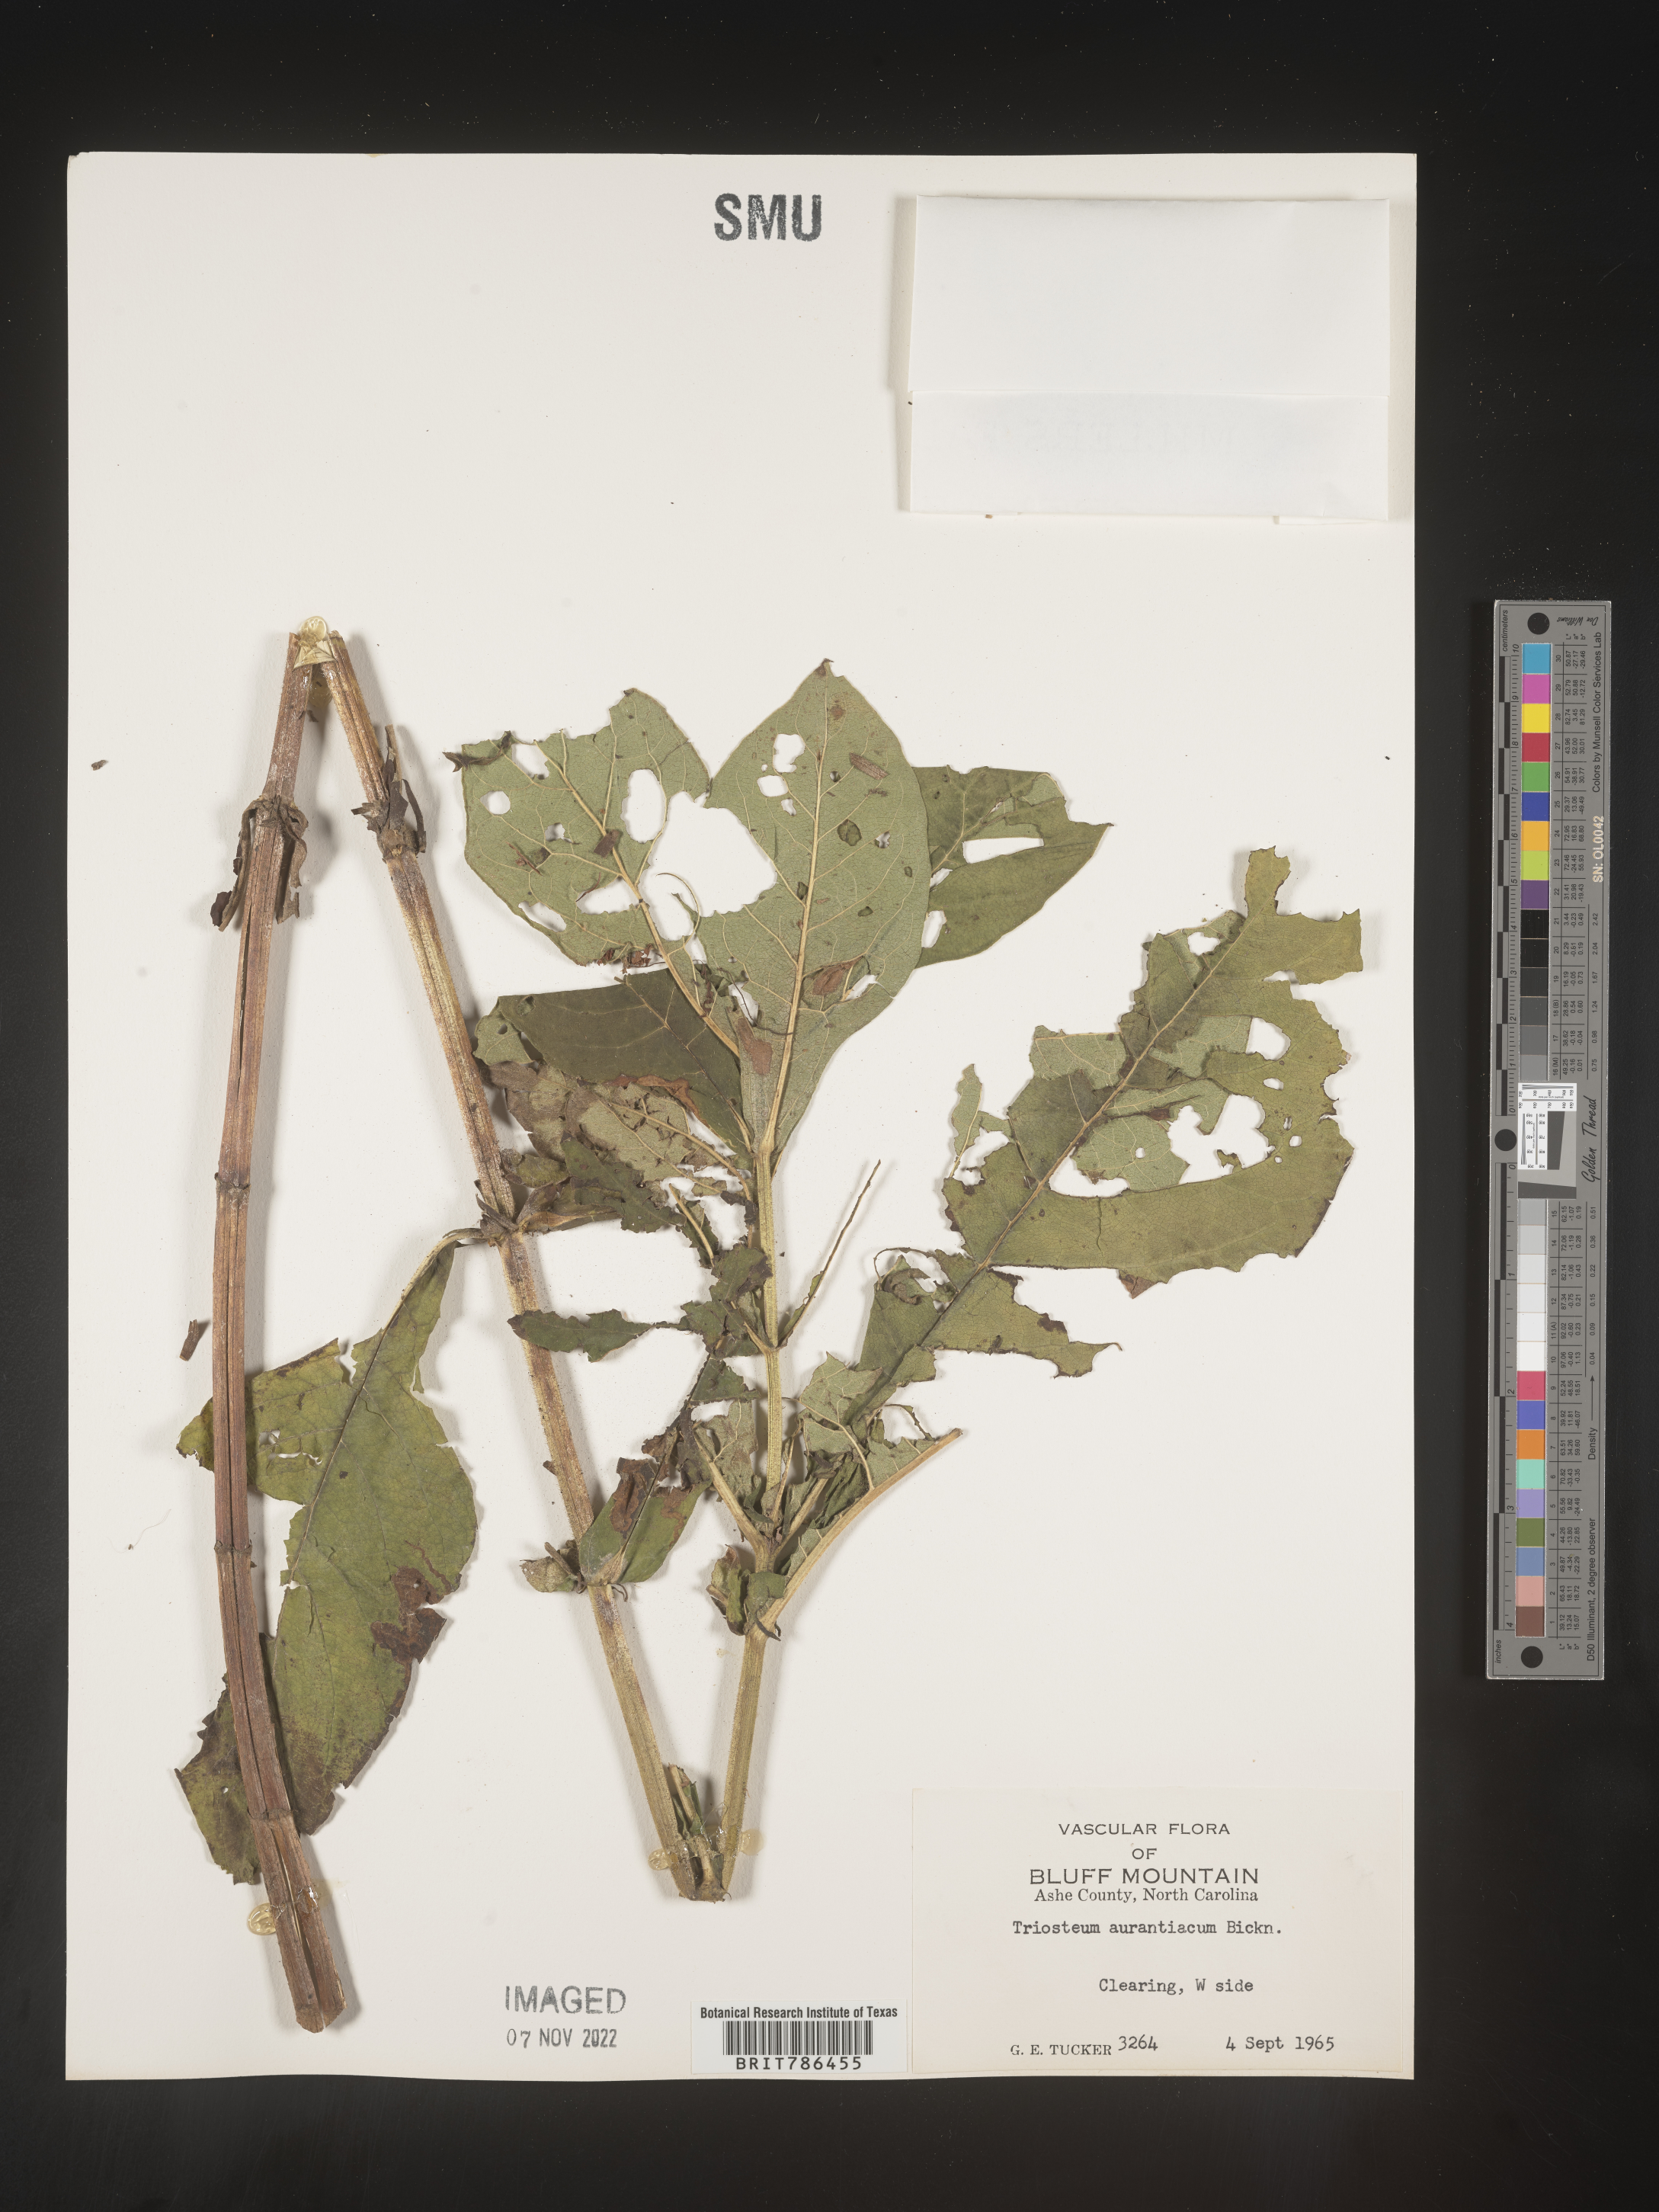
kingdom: Plantae
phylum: Tracheophyta
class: Magnoliopsida
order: Dipsacales
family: Caprifoliaceae
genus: Triosteum
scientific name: Triosteum aurantiacum
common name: Coffee tinker's-weed
